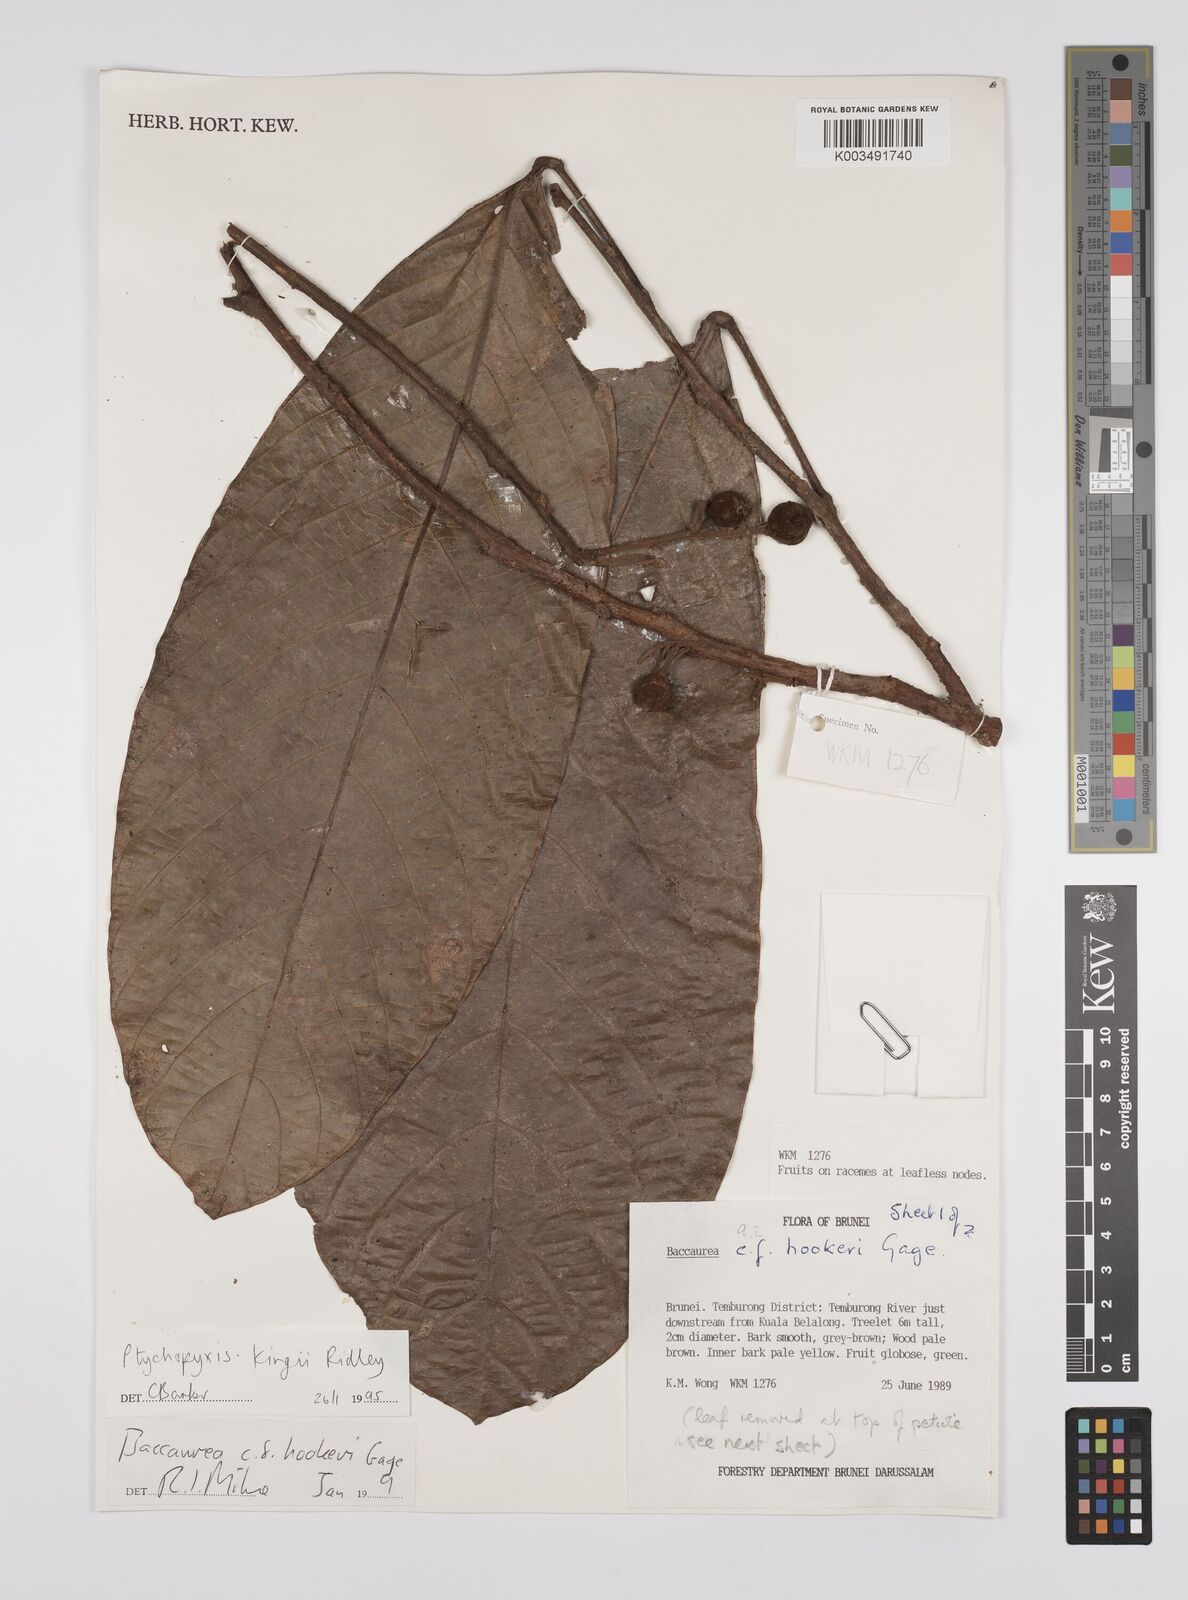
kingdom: Plantae
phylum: Tracheophyta
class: Magnoliopsida
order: Malpighiales
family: Euphorbiaceae
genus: Ptychopyxis
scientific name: Ptychopyxis kingii
